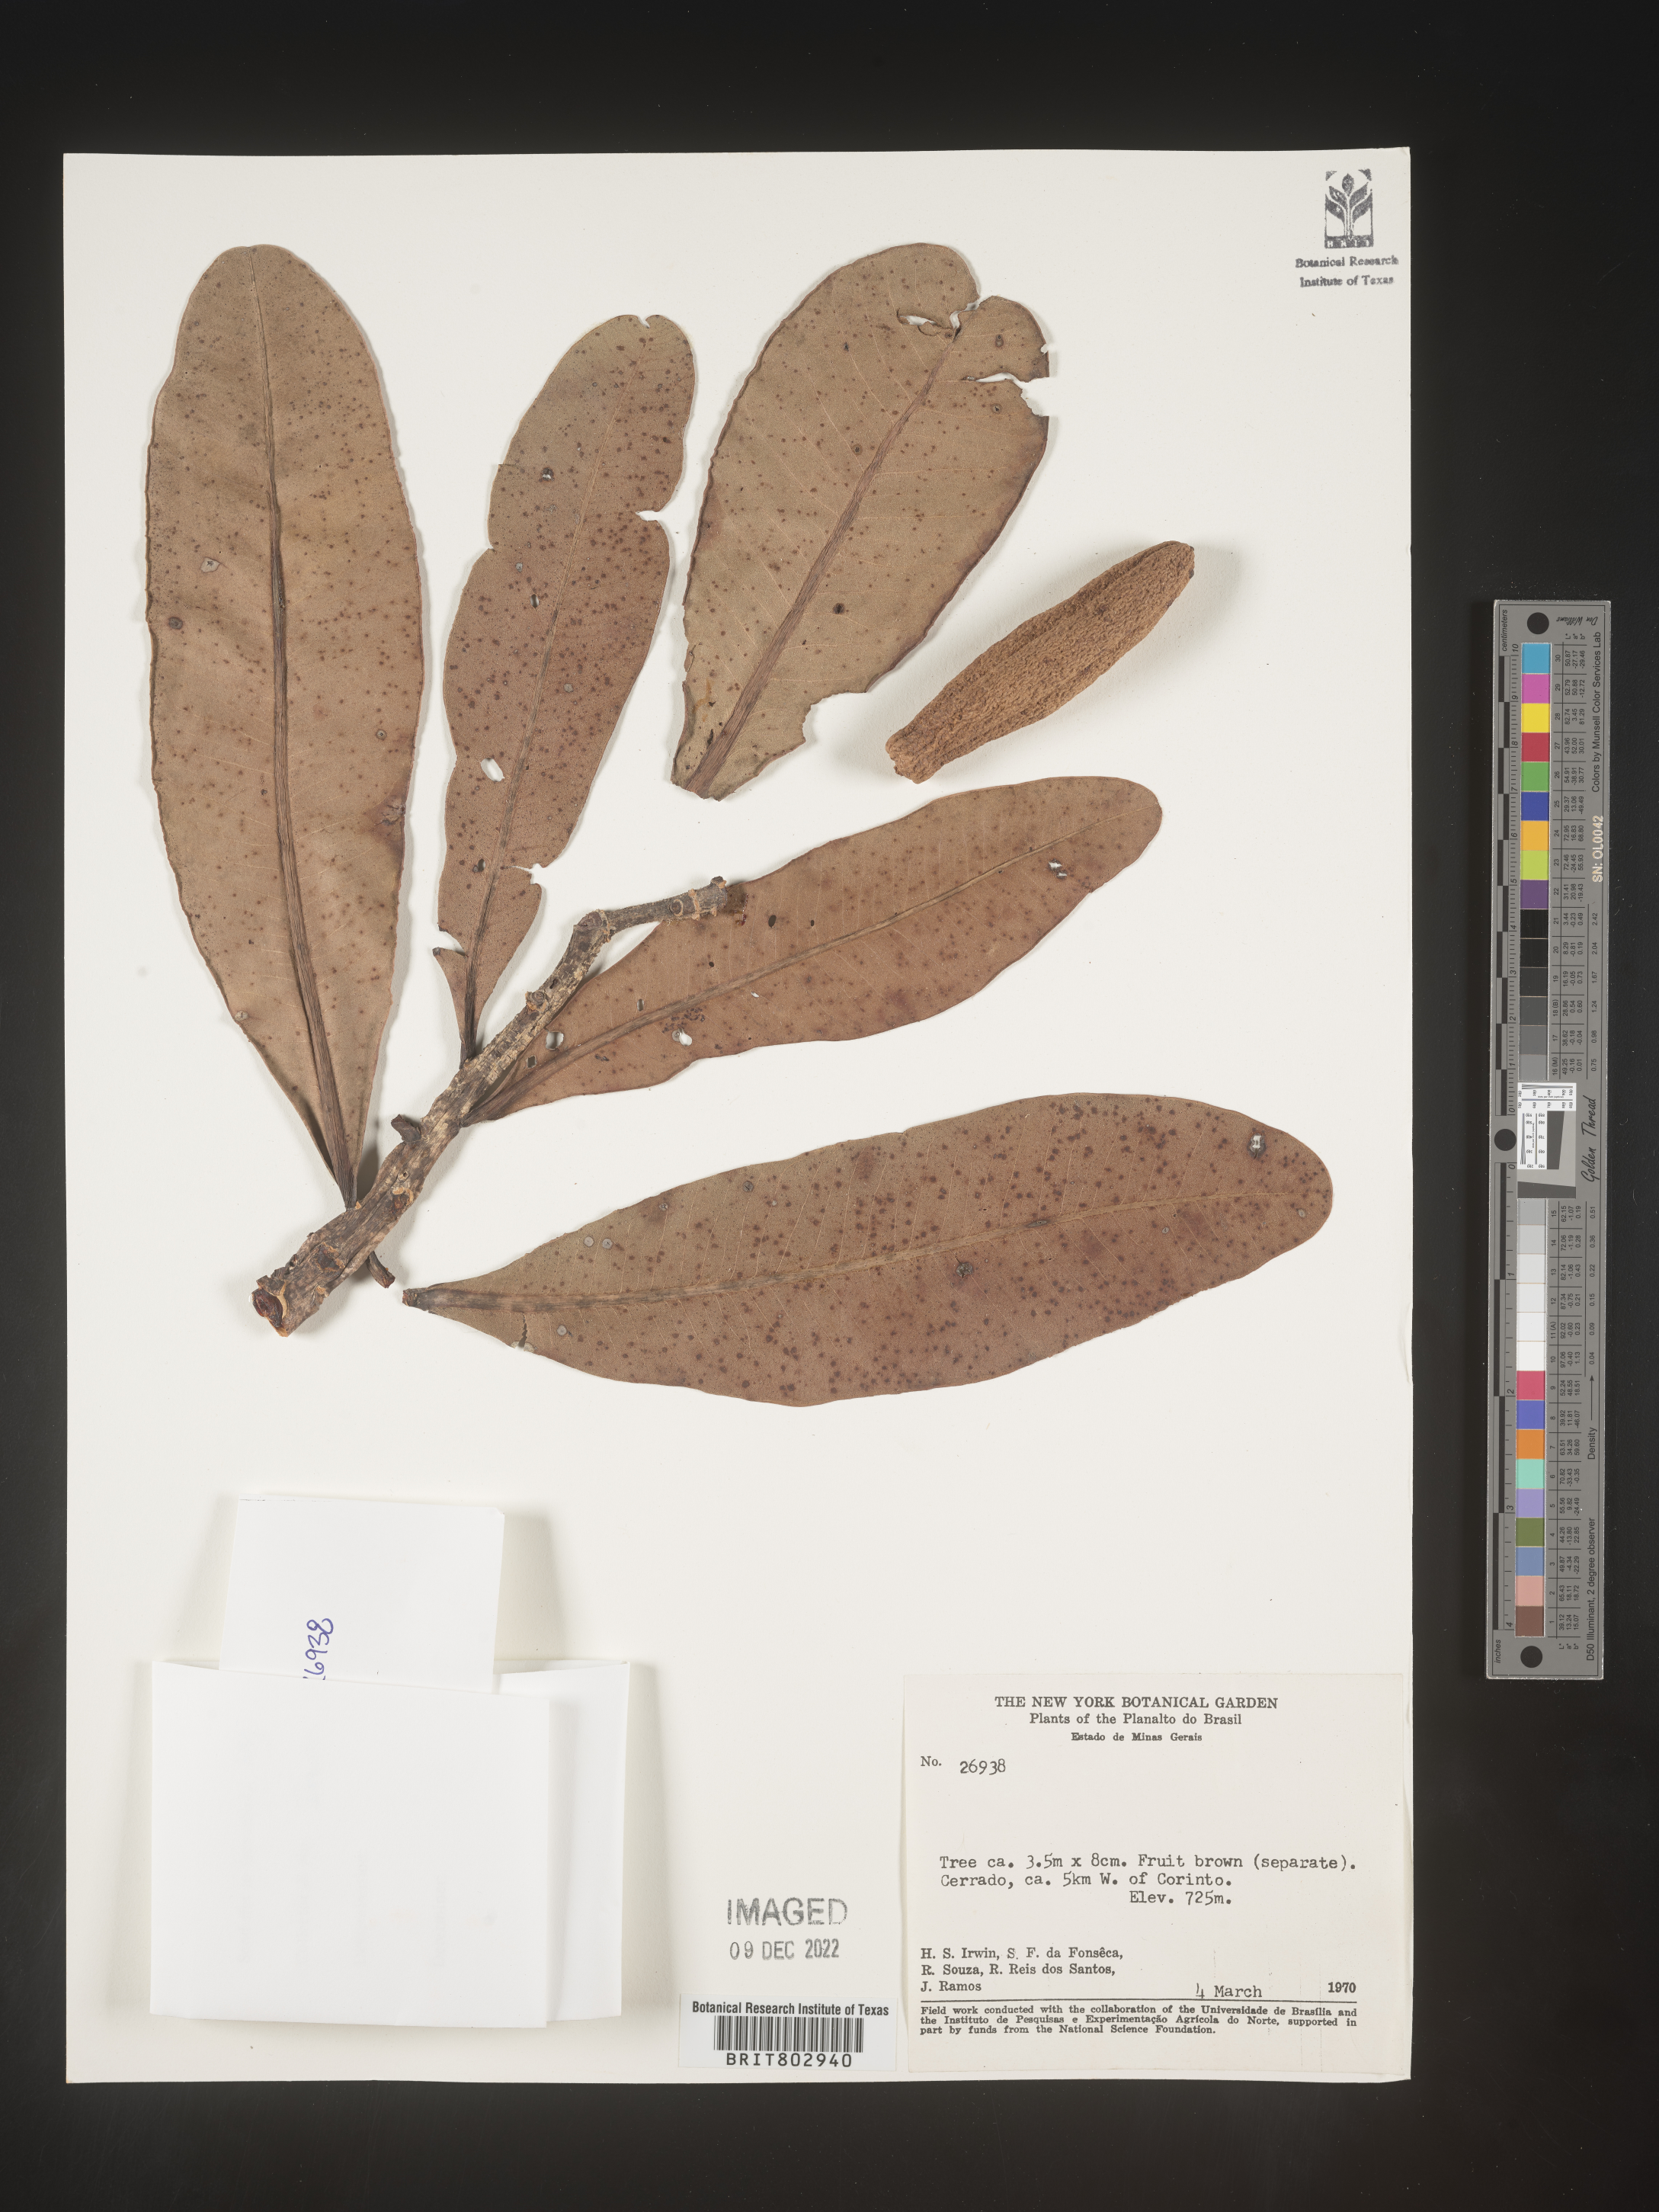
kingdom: Plantae
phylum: Tracheophyta
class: Magnoliopsida
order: Malpighiales
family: Calophyllaceae
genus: Kielmeyera
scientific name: Kielmeyera
